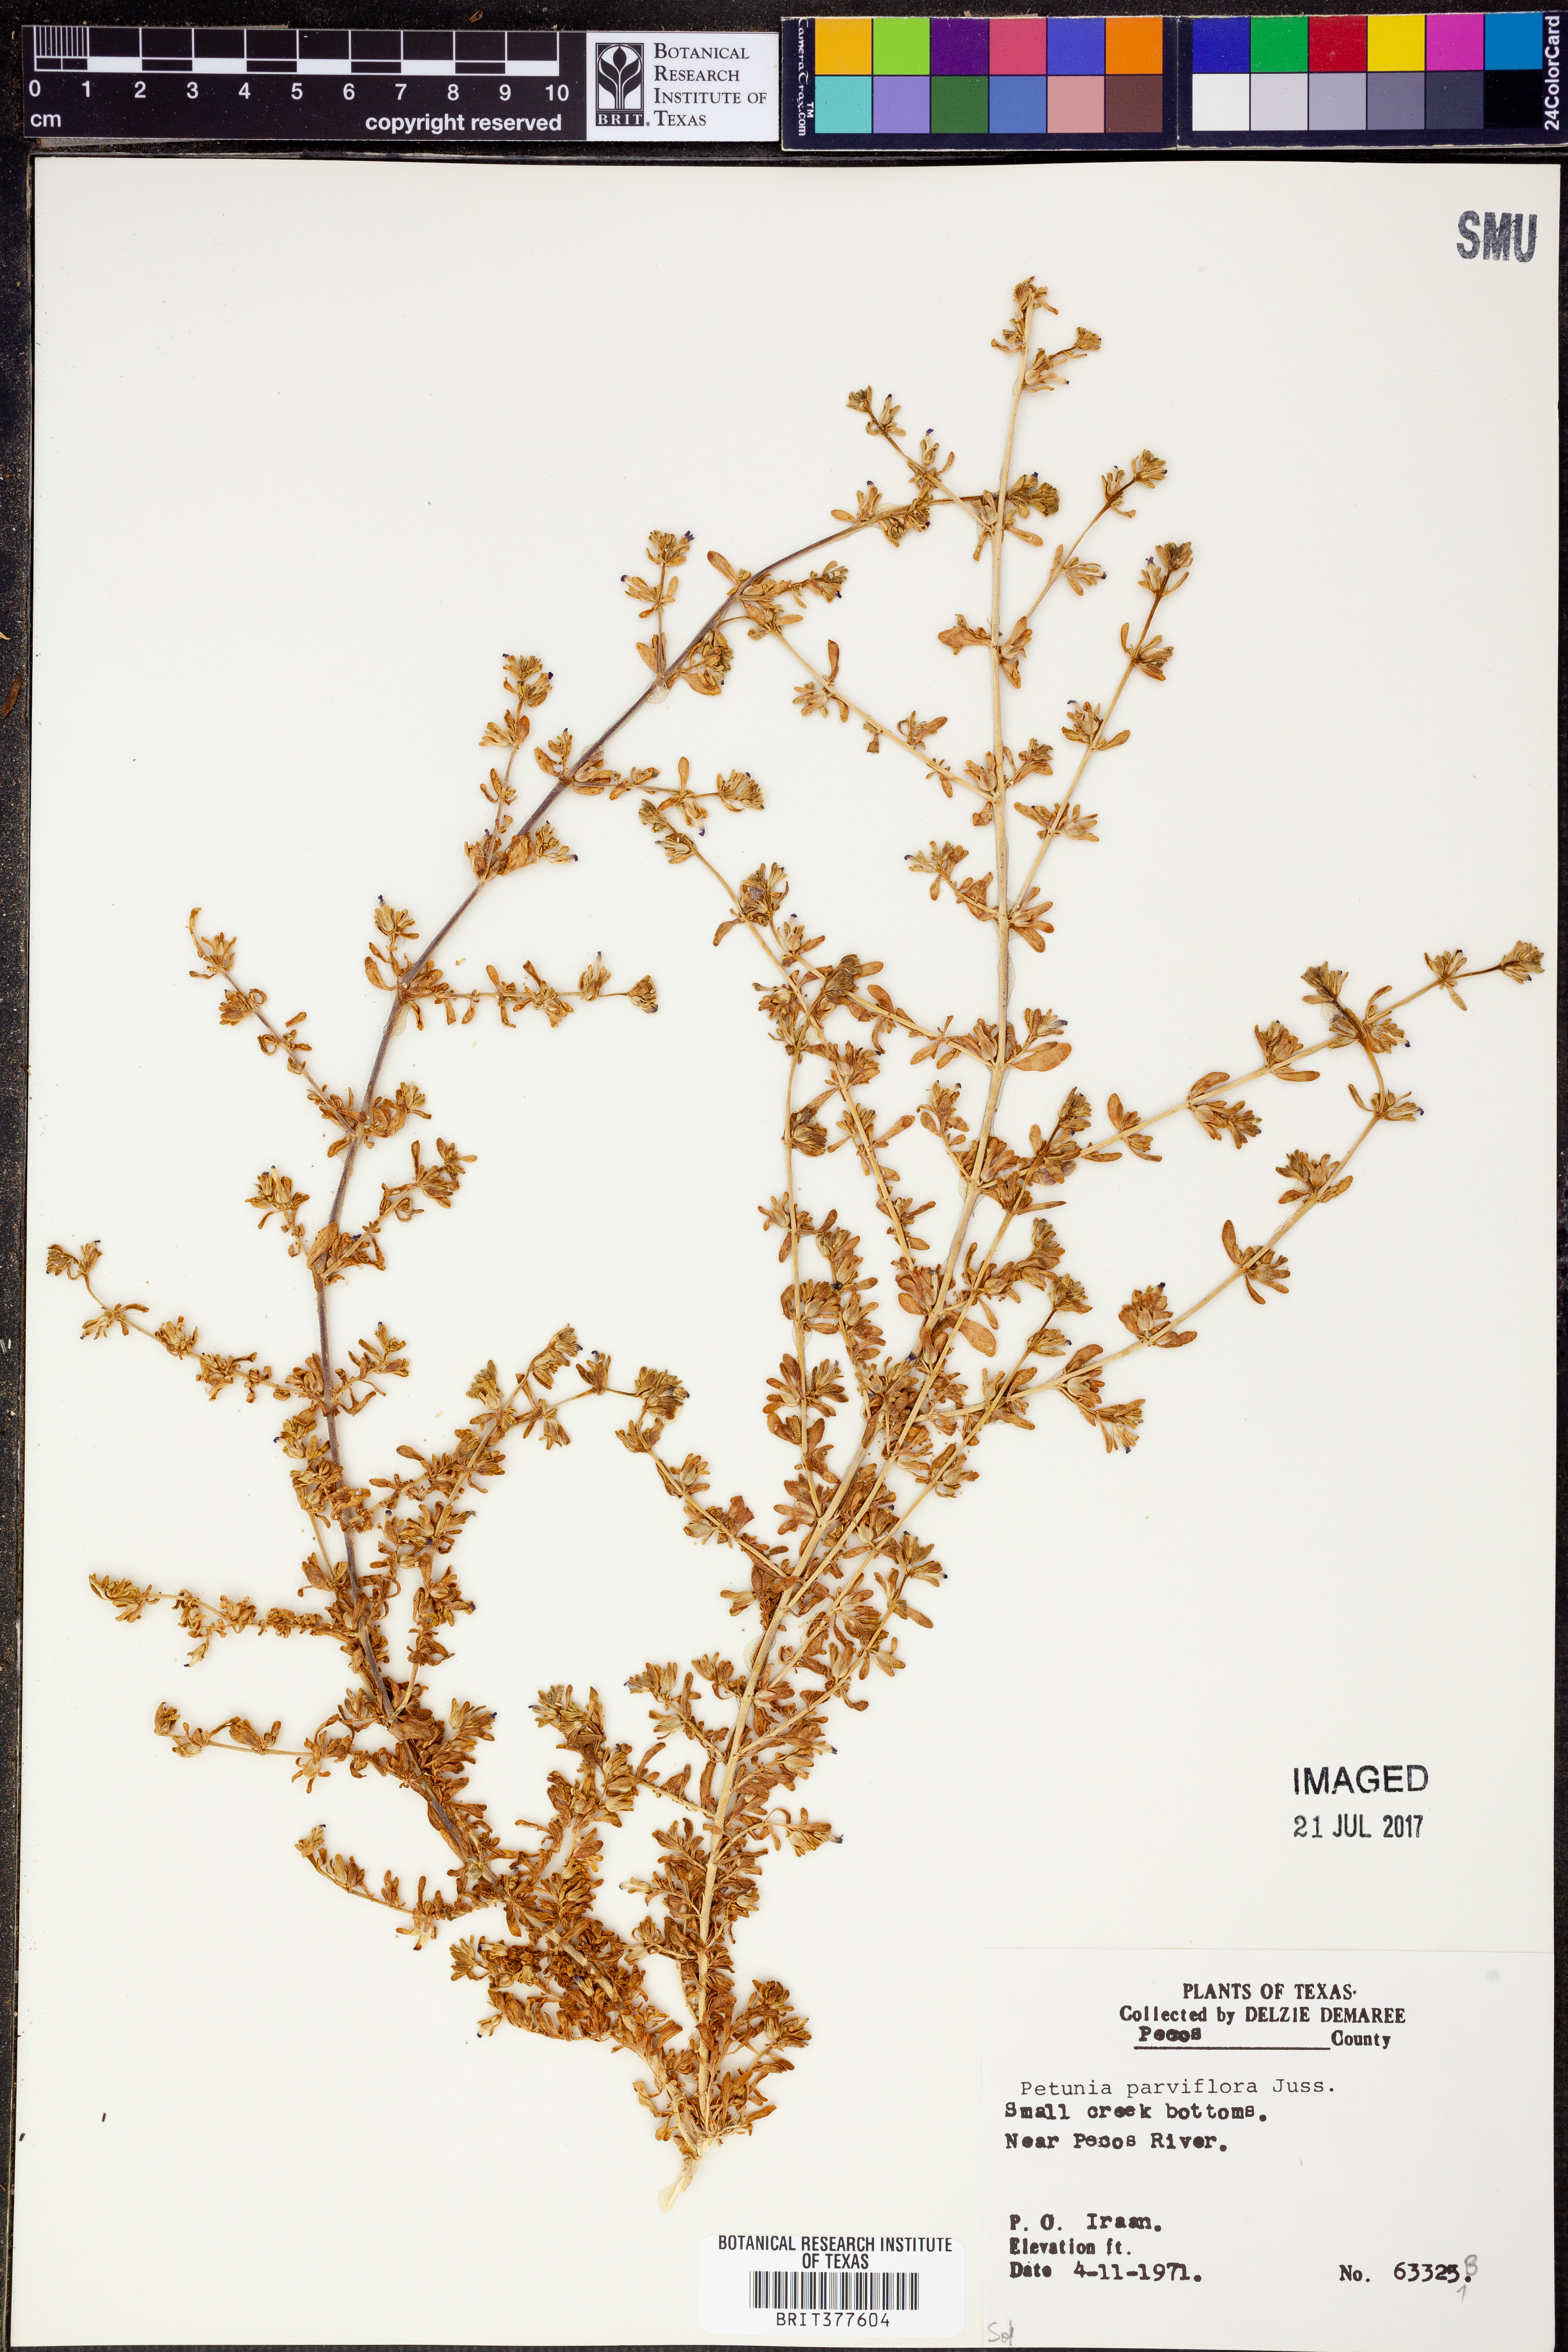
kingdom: Plantae
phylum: Tracheophyta
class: Magnoliopsida
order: Solanales
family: Solanaceae
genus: Calibrachoa
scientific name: Calibrachoa parviflora
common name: Seaside petunia
